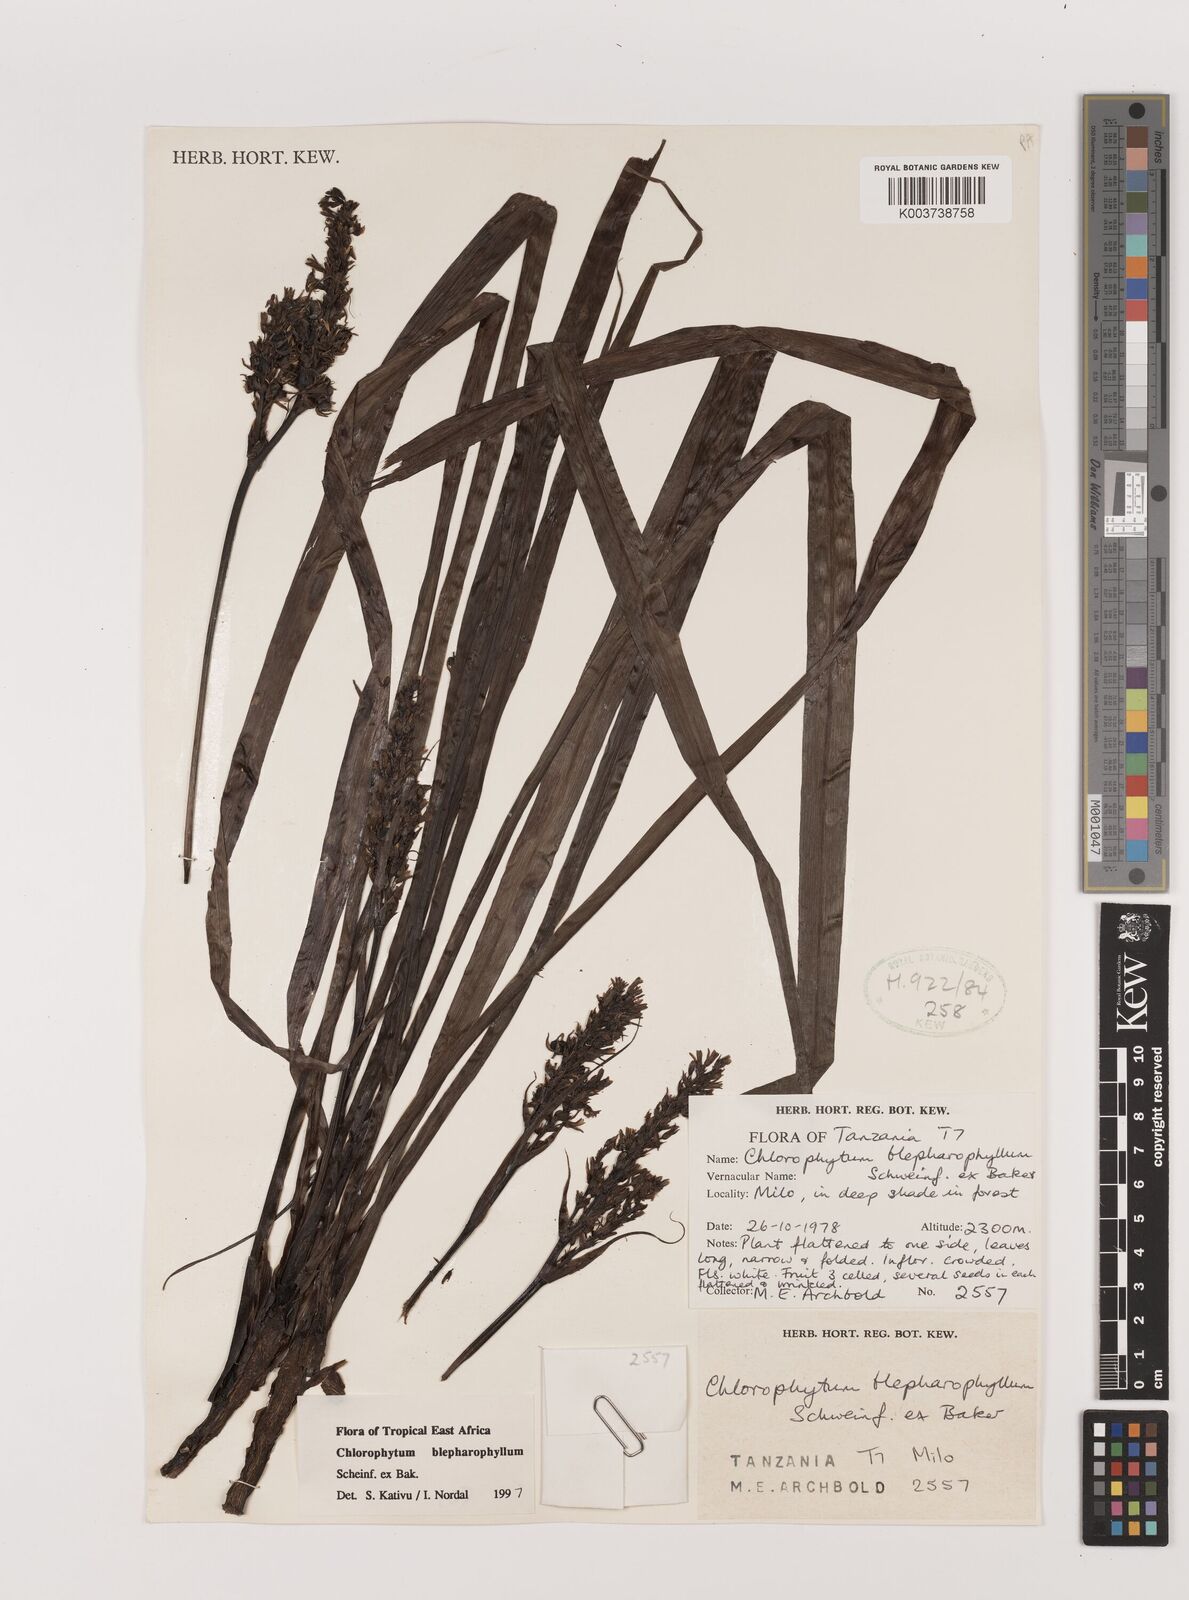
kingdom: Plantae
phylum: Tracheophyta
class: Liliopsida
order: Asparagales
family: Asparagaceae
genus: Chlorophytum
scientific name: Chlorophytum blepharophyllum
